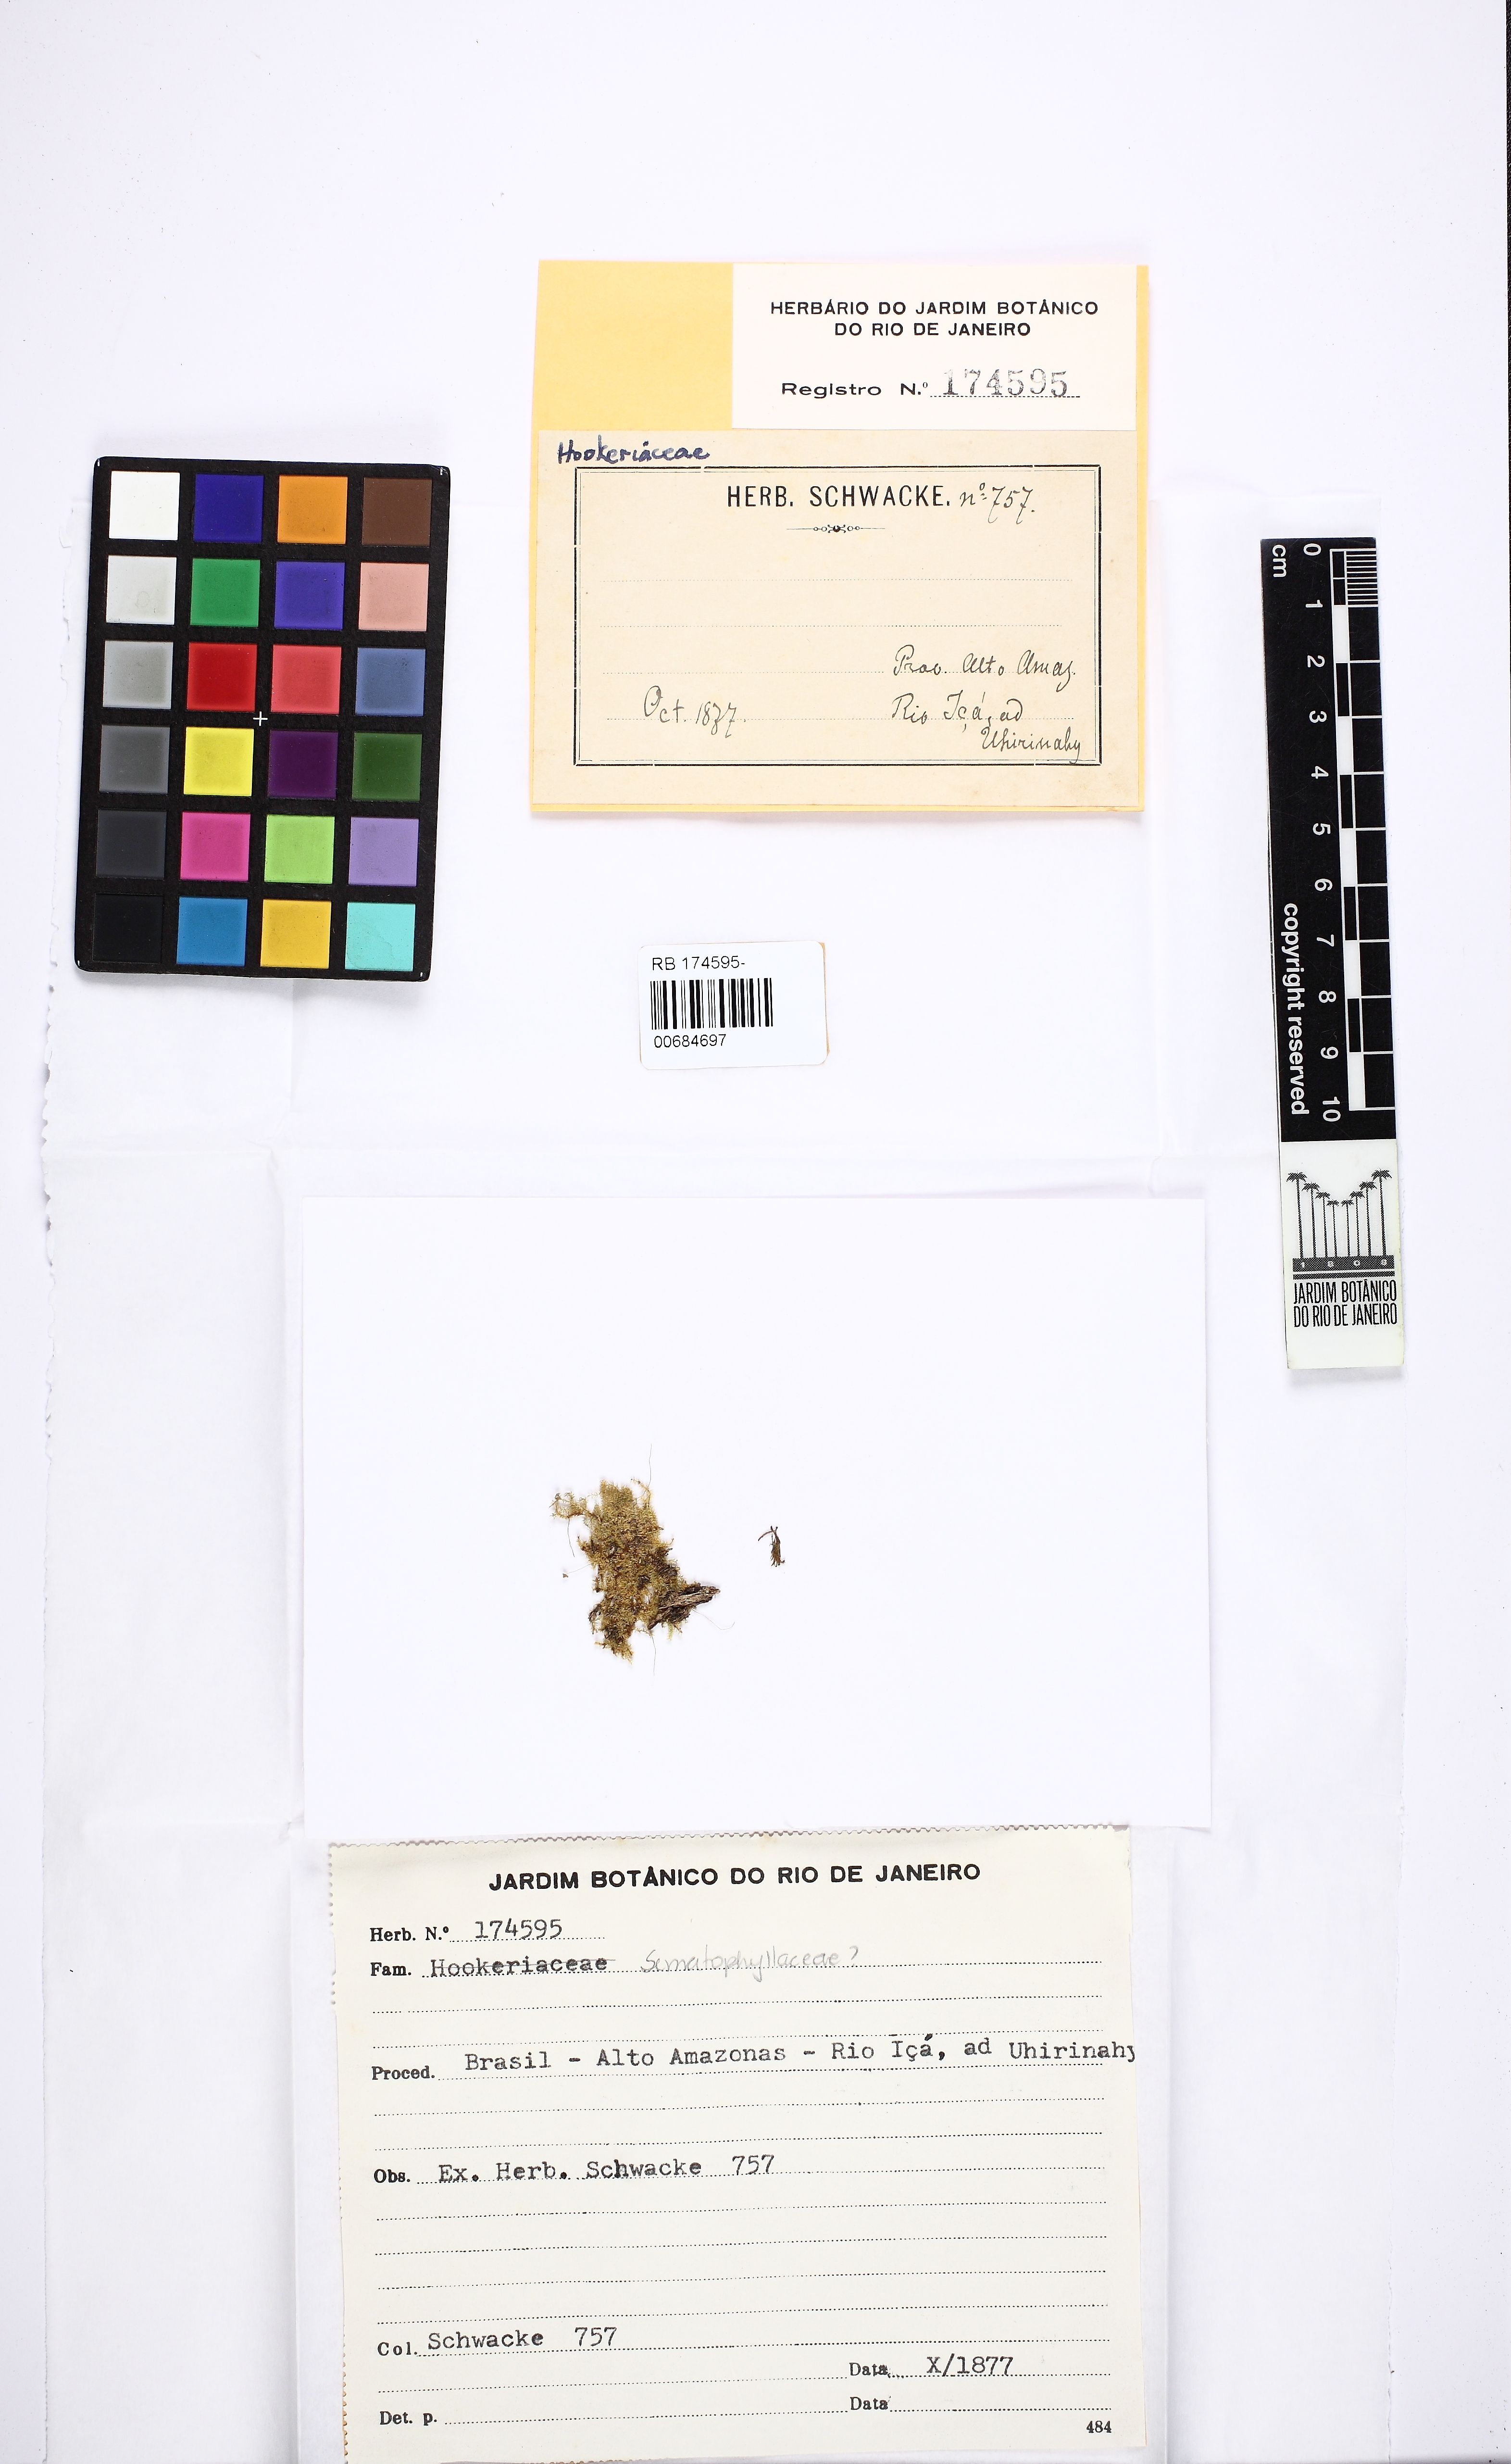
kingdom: Plantae
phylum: Bryophyta
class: Bryopsida
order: Hypnales
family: Sematophyllaceae
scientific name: Sematophyllaceae
